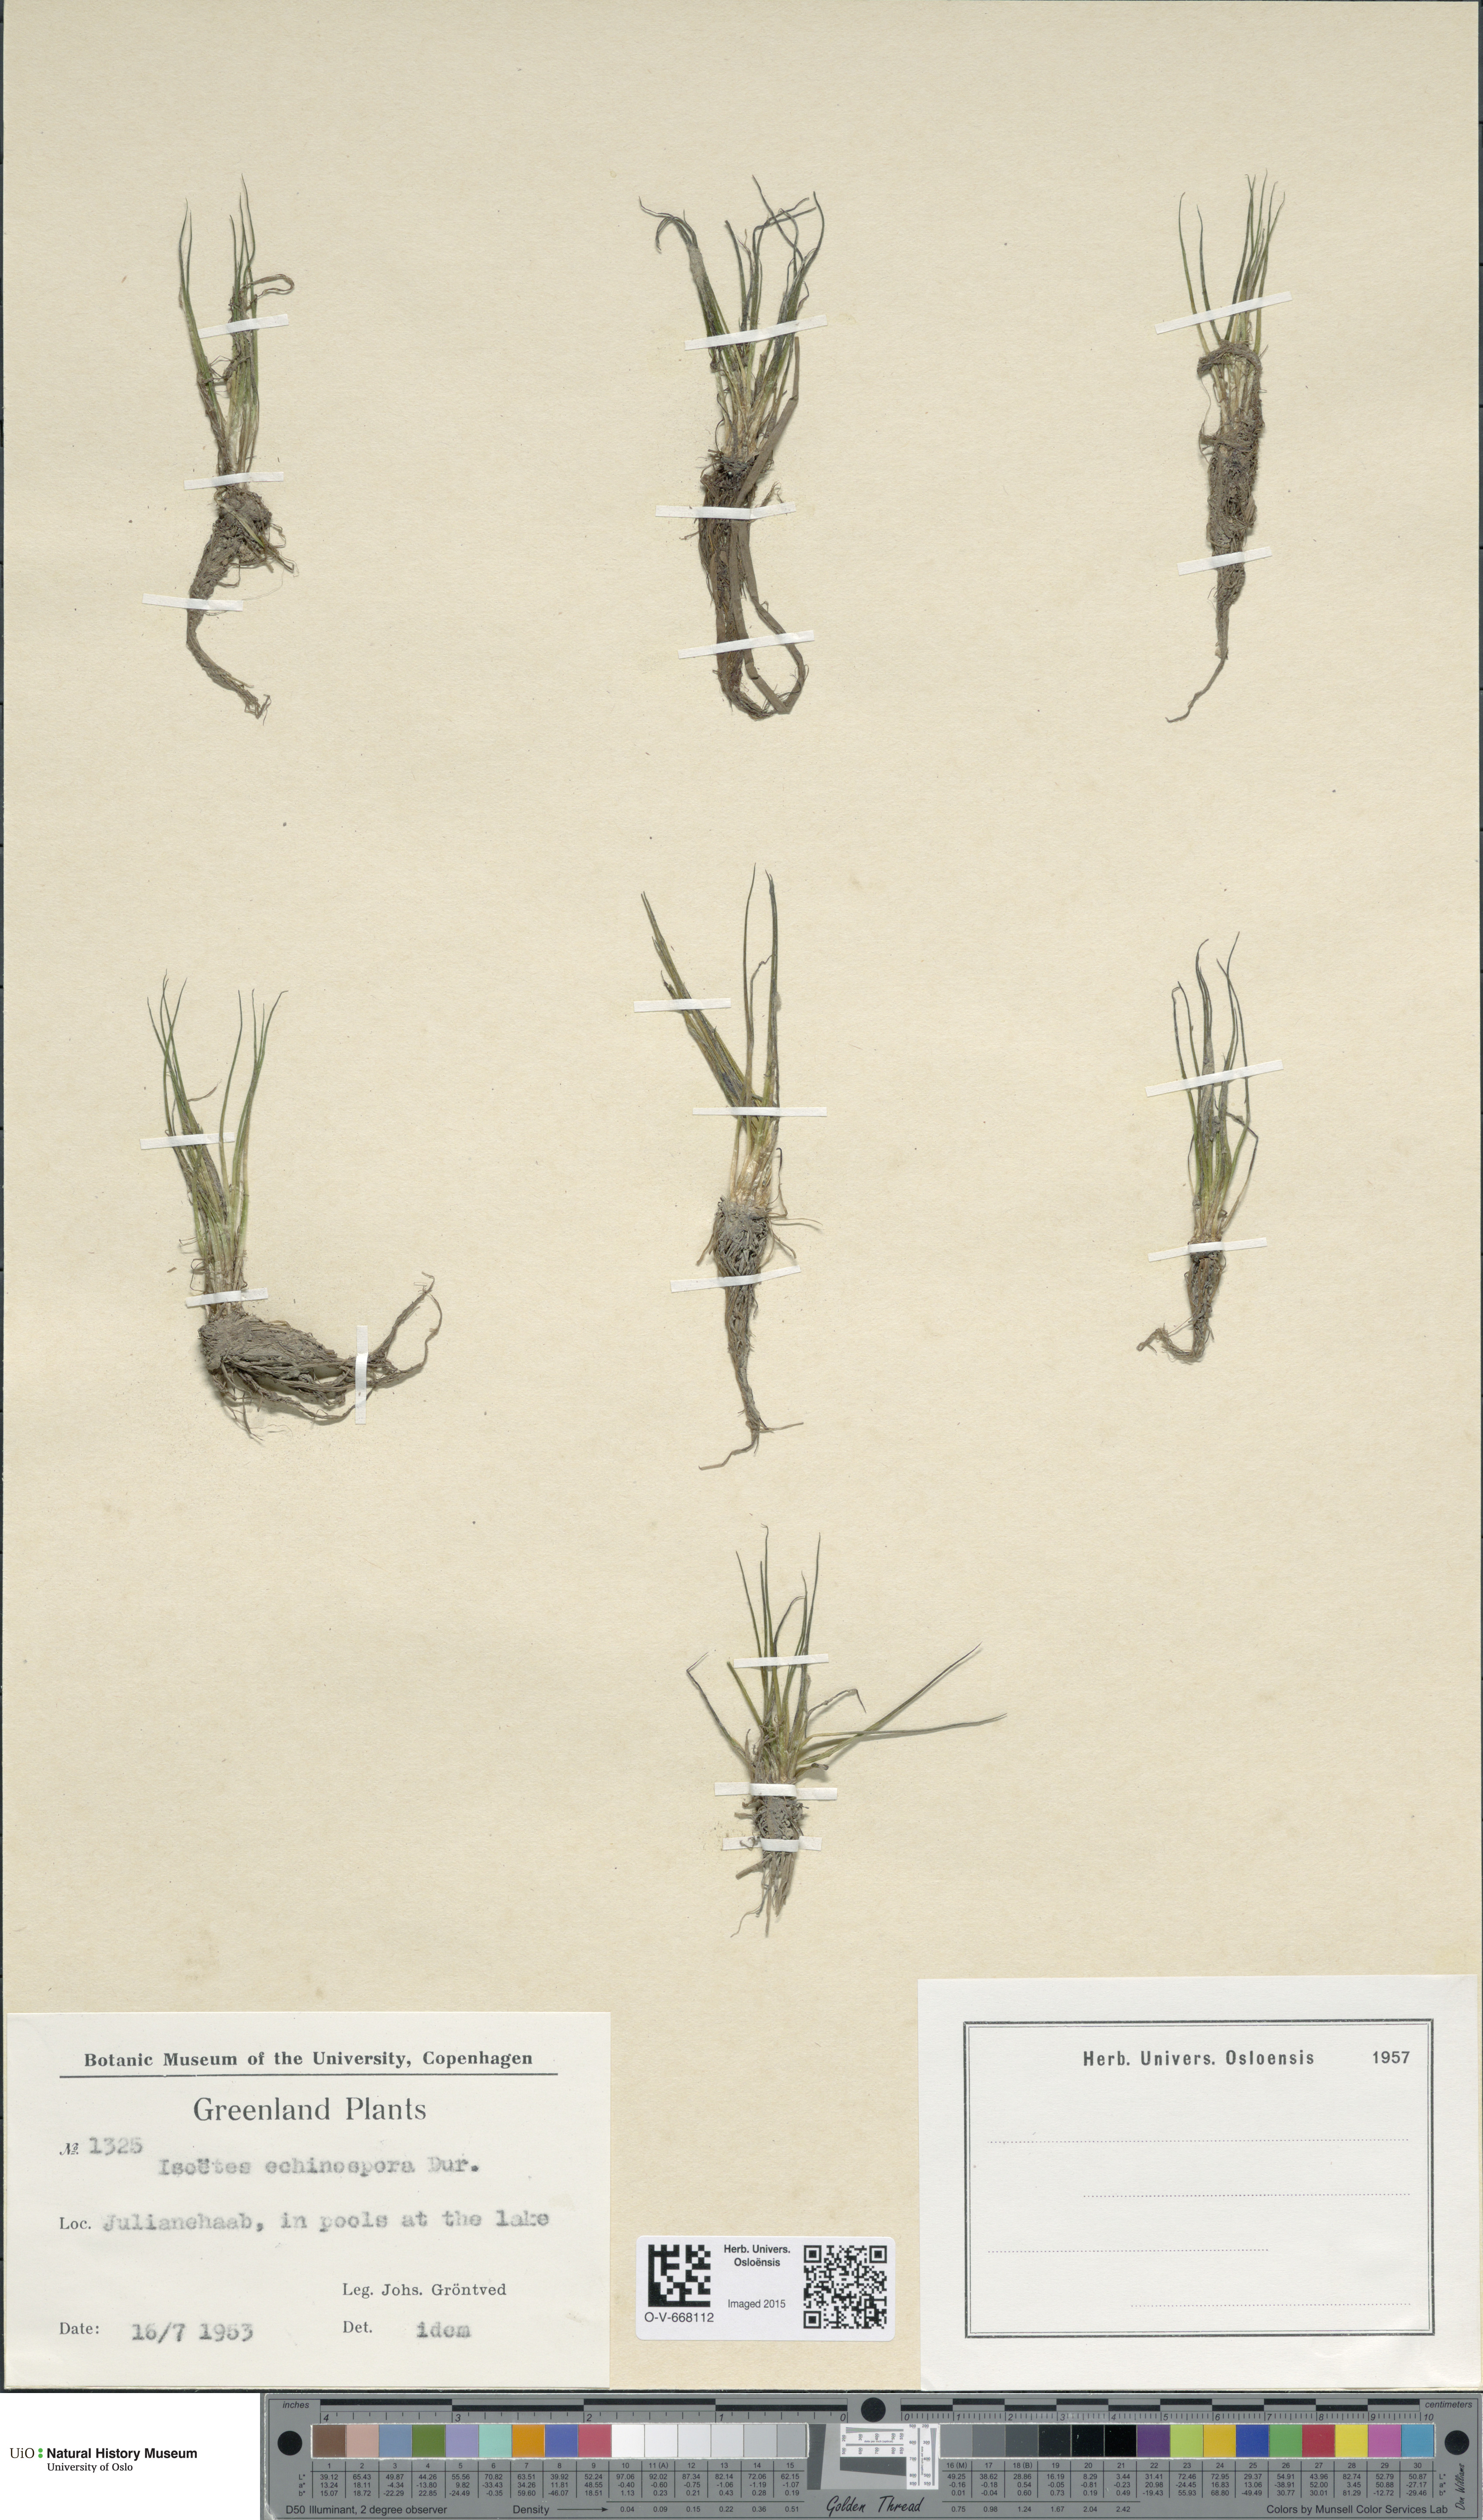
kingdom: Plantae
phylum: Tracheophyta
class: Lycopodiopsida
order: Isoetales
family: Isoetaceae
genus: Isoetes
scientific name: Isoetes echinospora
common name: Spring quillwort
